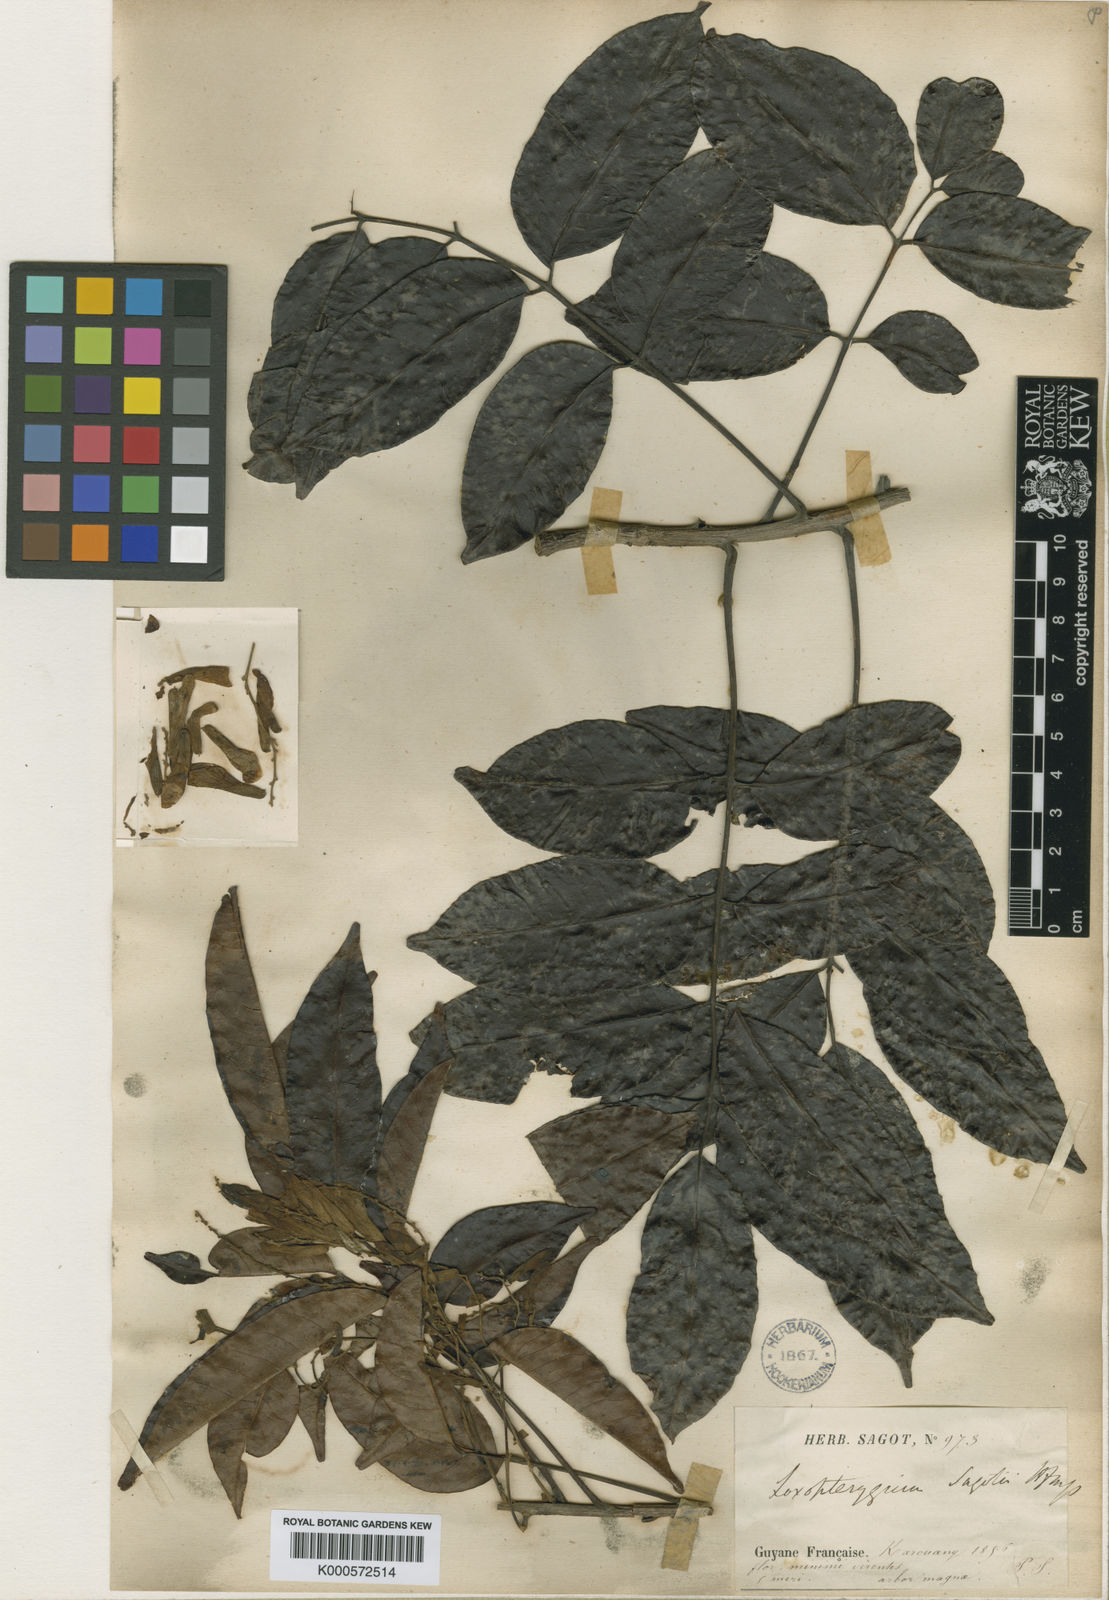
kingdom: Plantae
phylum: Tracheophyta
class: Magnoliopsida
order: Sapindales
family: Anacardiaceae
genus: Loxopterygium
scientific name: Loxopterygium sagotii
